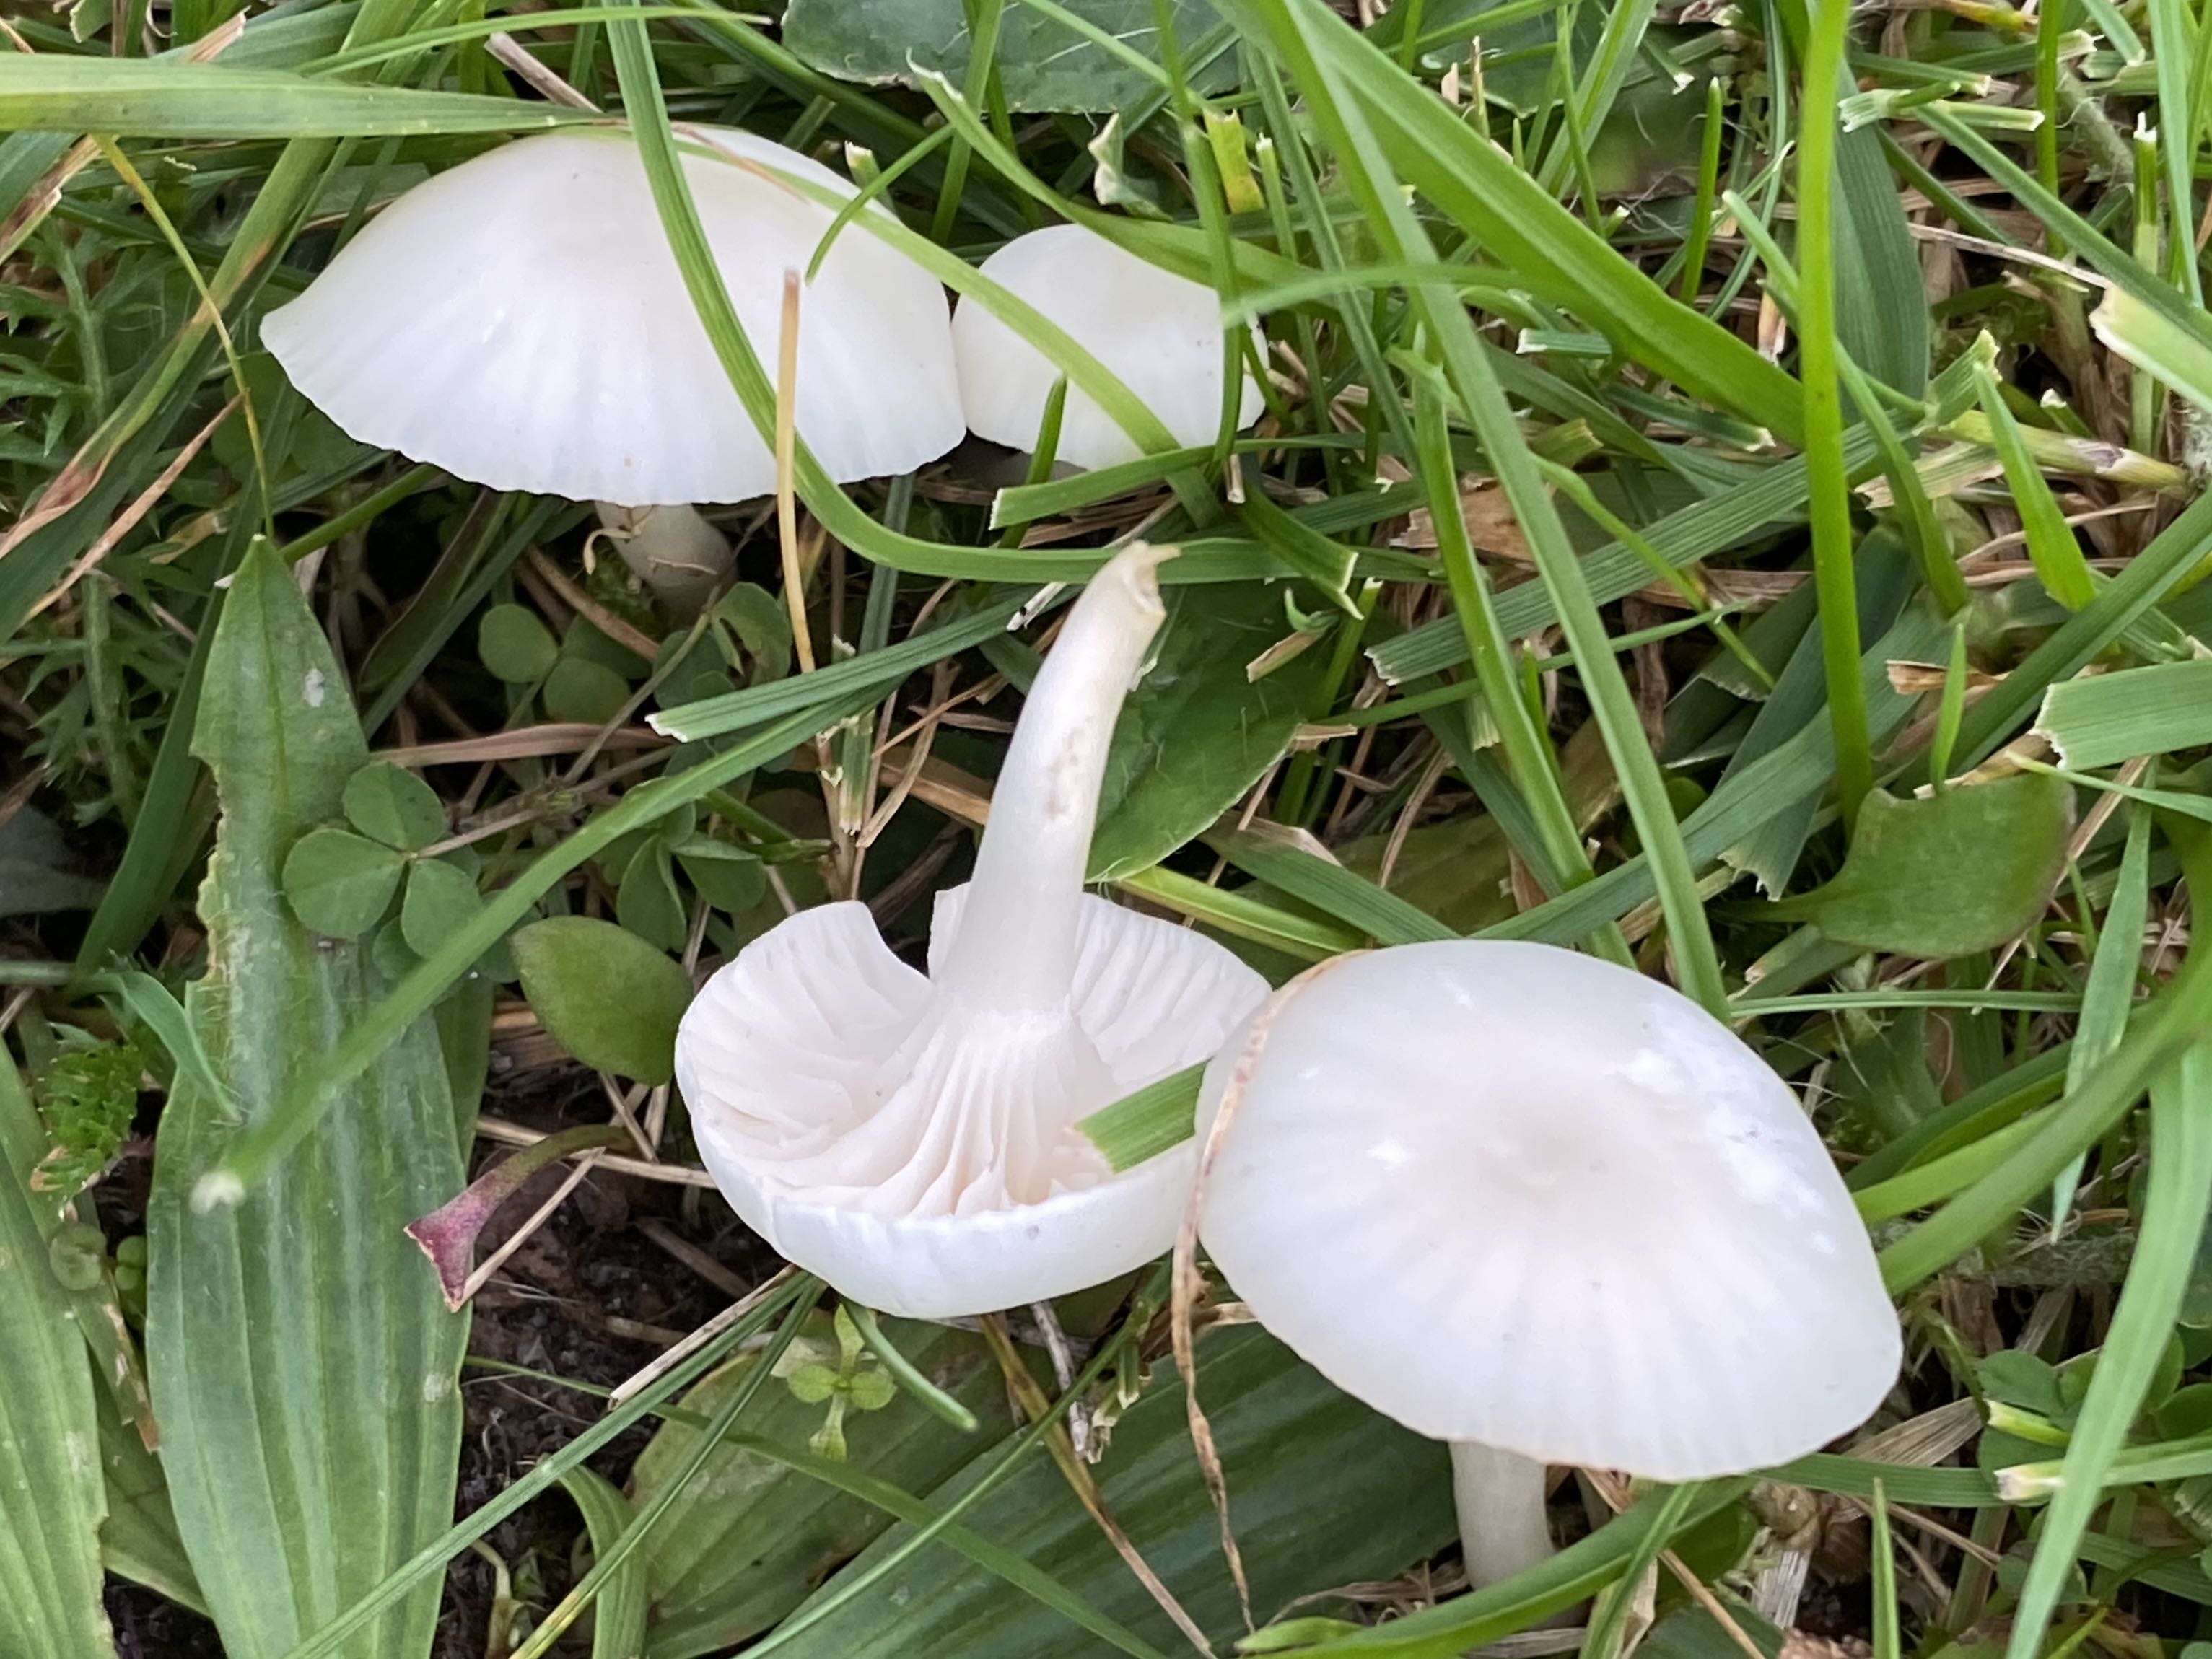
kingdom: Fungi
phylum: Basidiomycota
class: Agaricomycetes
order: Agaricales
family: Hygrophoraceae
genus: Cuphophyllus
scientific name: Cuphophyllus virgineus
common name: snehvid vokshat
